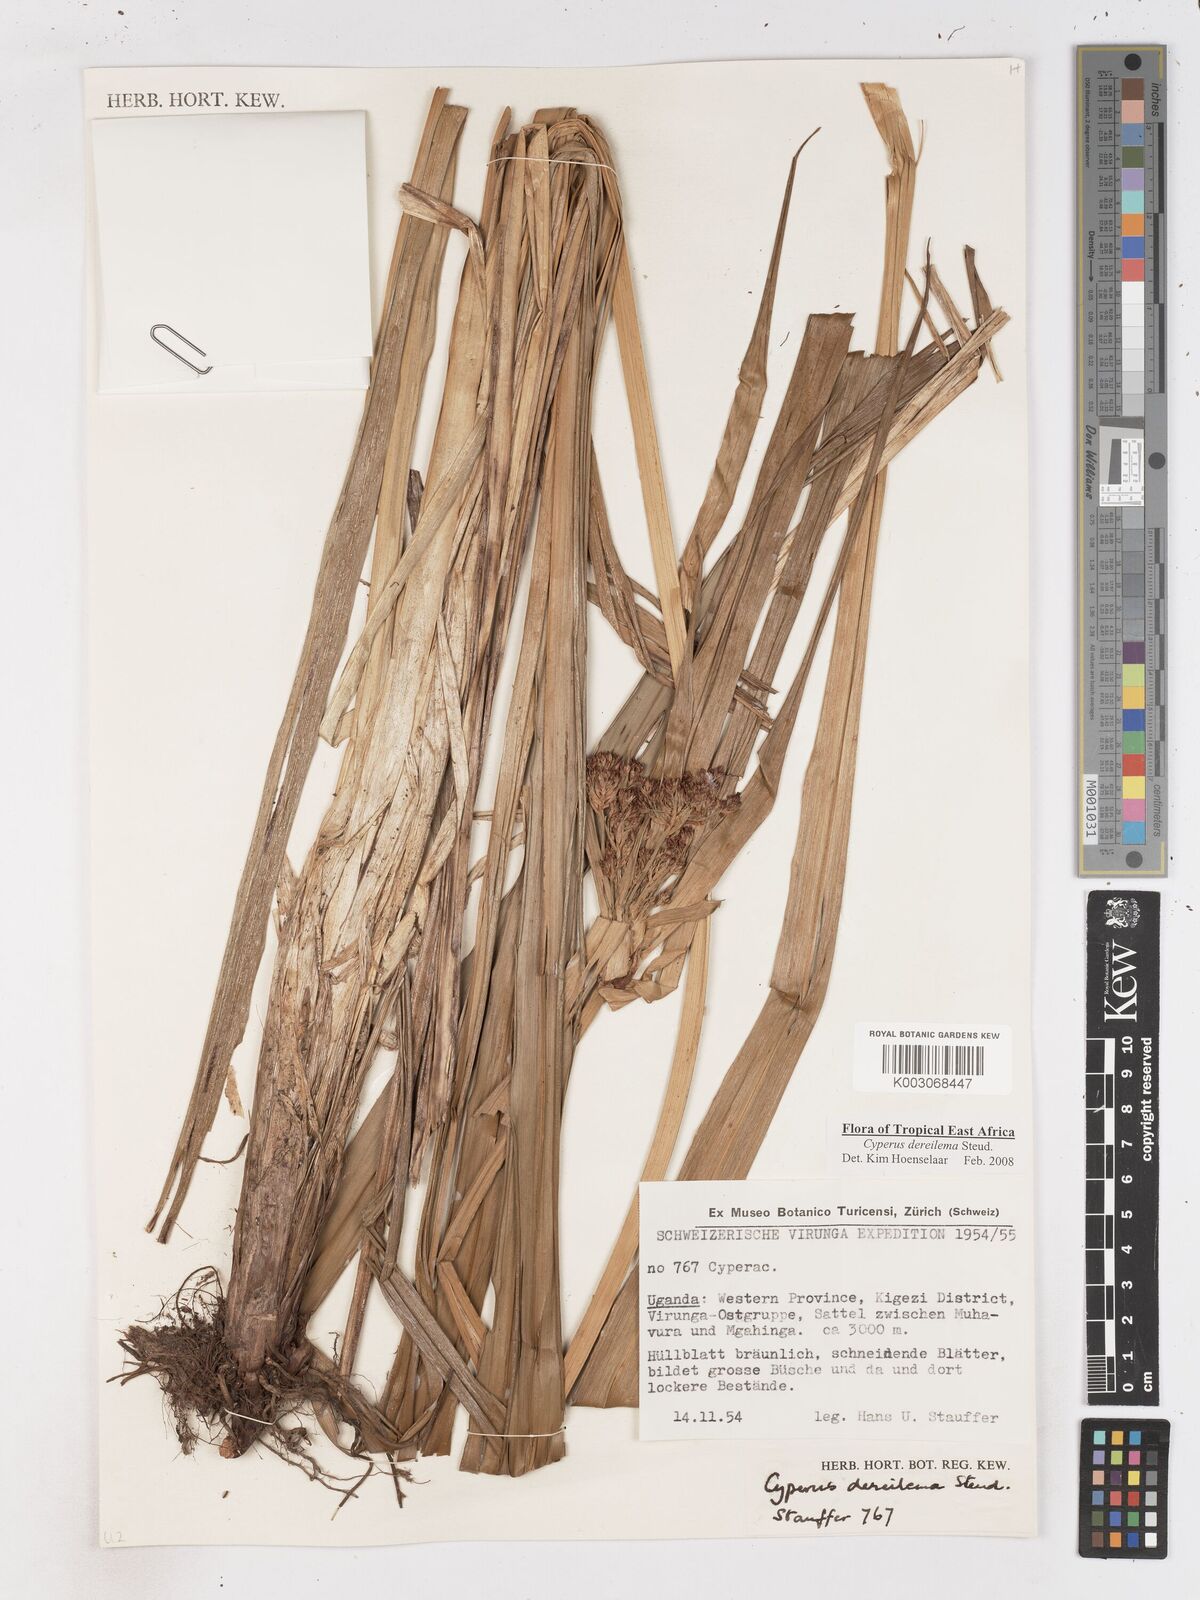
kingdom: Plantae
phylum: Tracheophyta
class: Liliopsida
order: Poales
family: Cyperaceae
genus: Cyperus
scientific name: Cyperus derreilema
